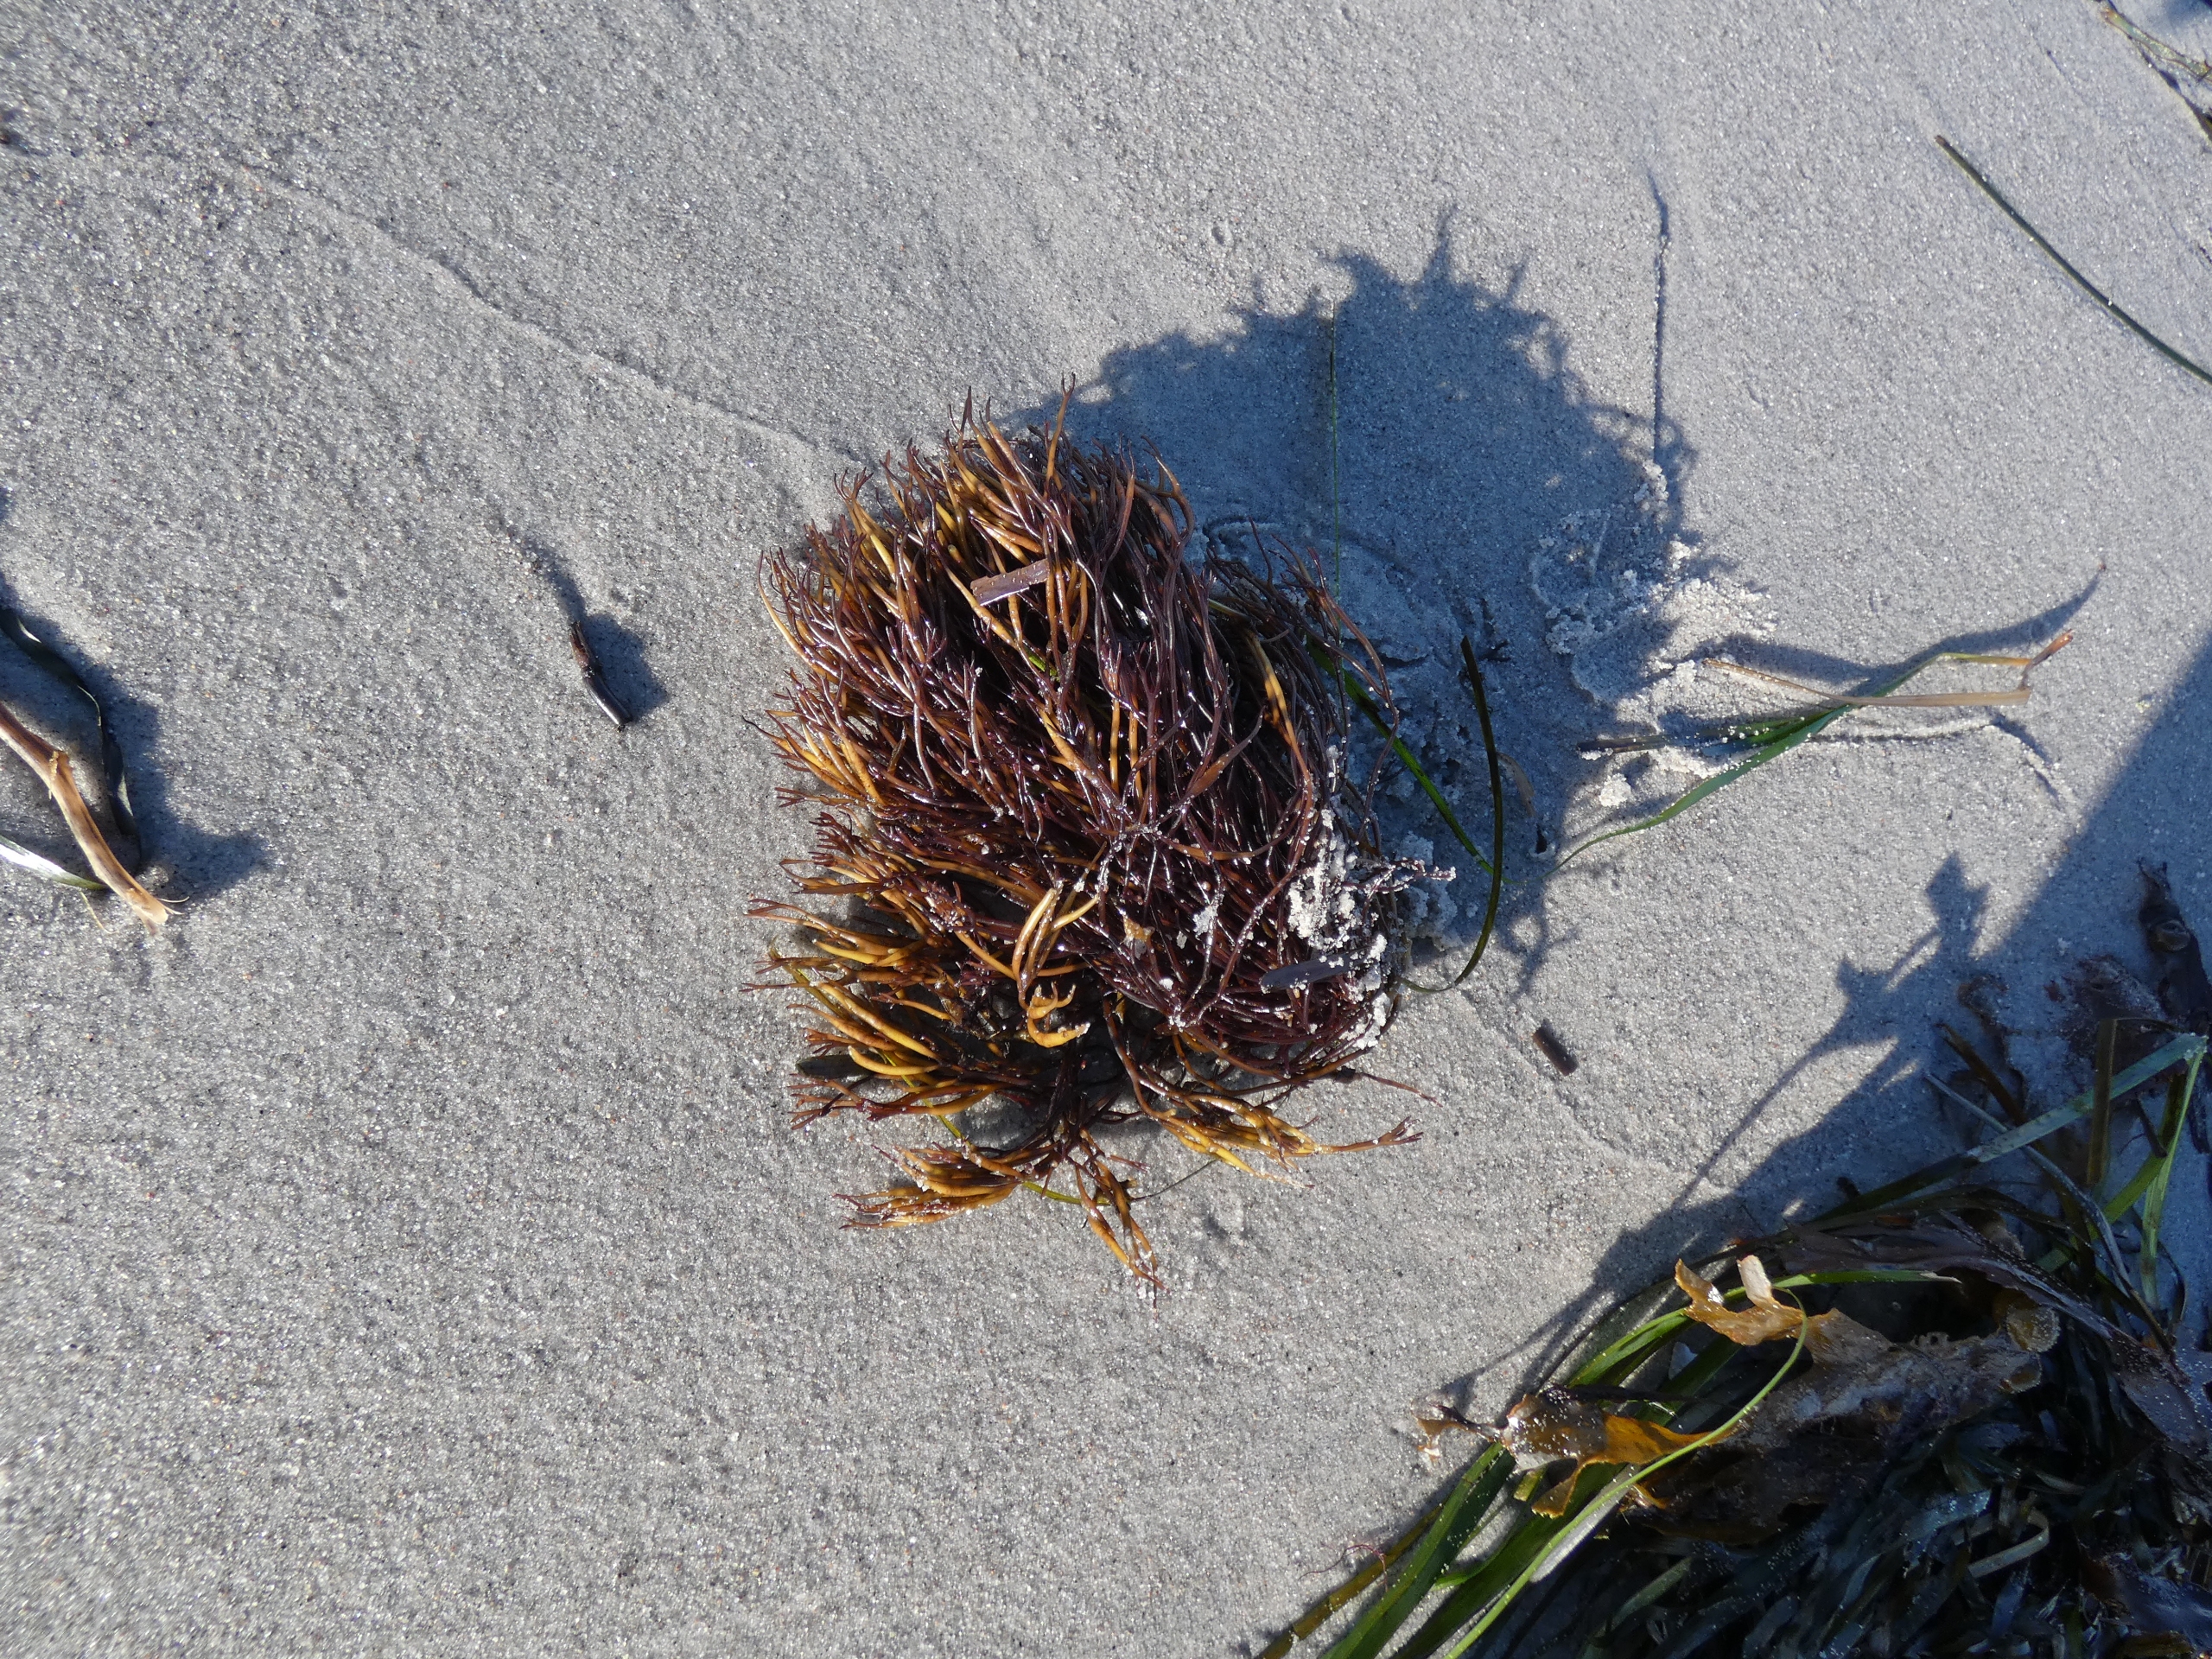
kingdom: Plantae
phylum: Rhodophyta
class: Florideophyceae
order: Gigartinales
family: Furcellariaceae
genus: Furcellaria
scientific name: Furcellaria lumbricalis
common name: Gaffeltang
